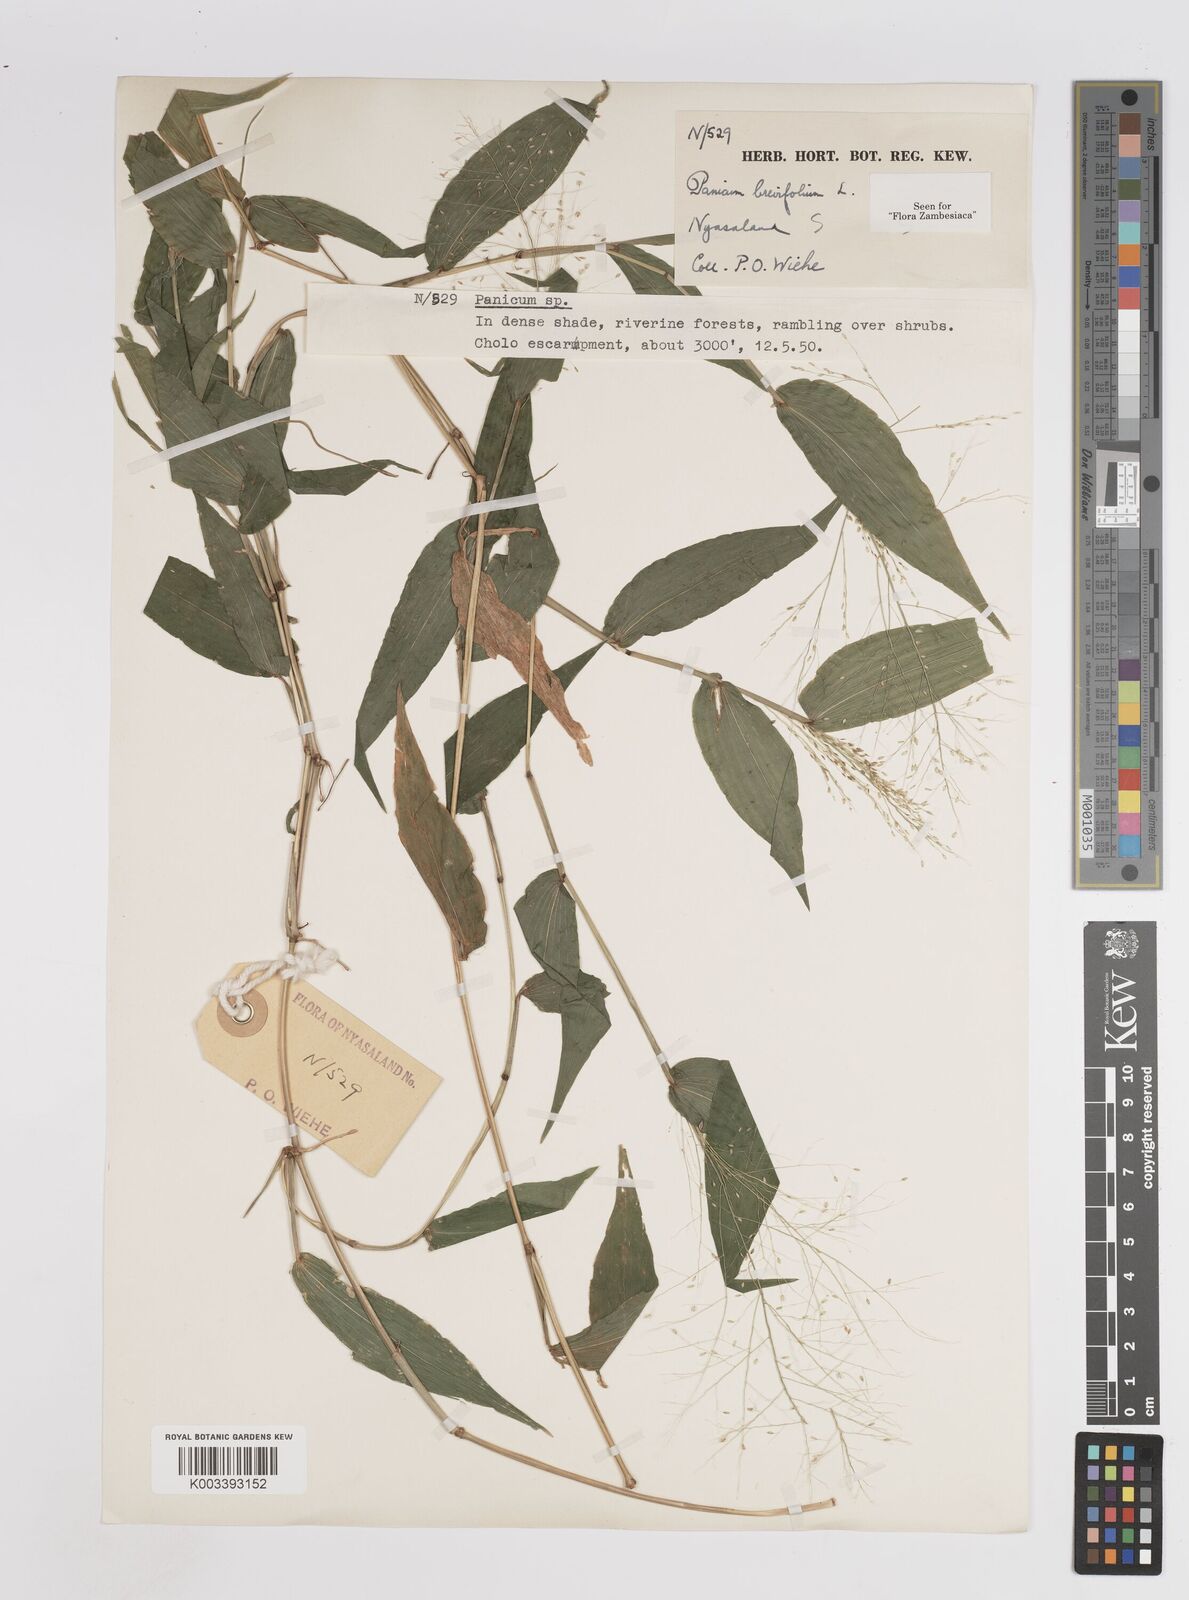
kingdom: Plantae
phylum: Tracheophyta
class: Liliopsida
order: Poales
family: Poaceae
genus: Panicum
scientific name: Panicum brevifolium
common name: Shortleaf panic grass
